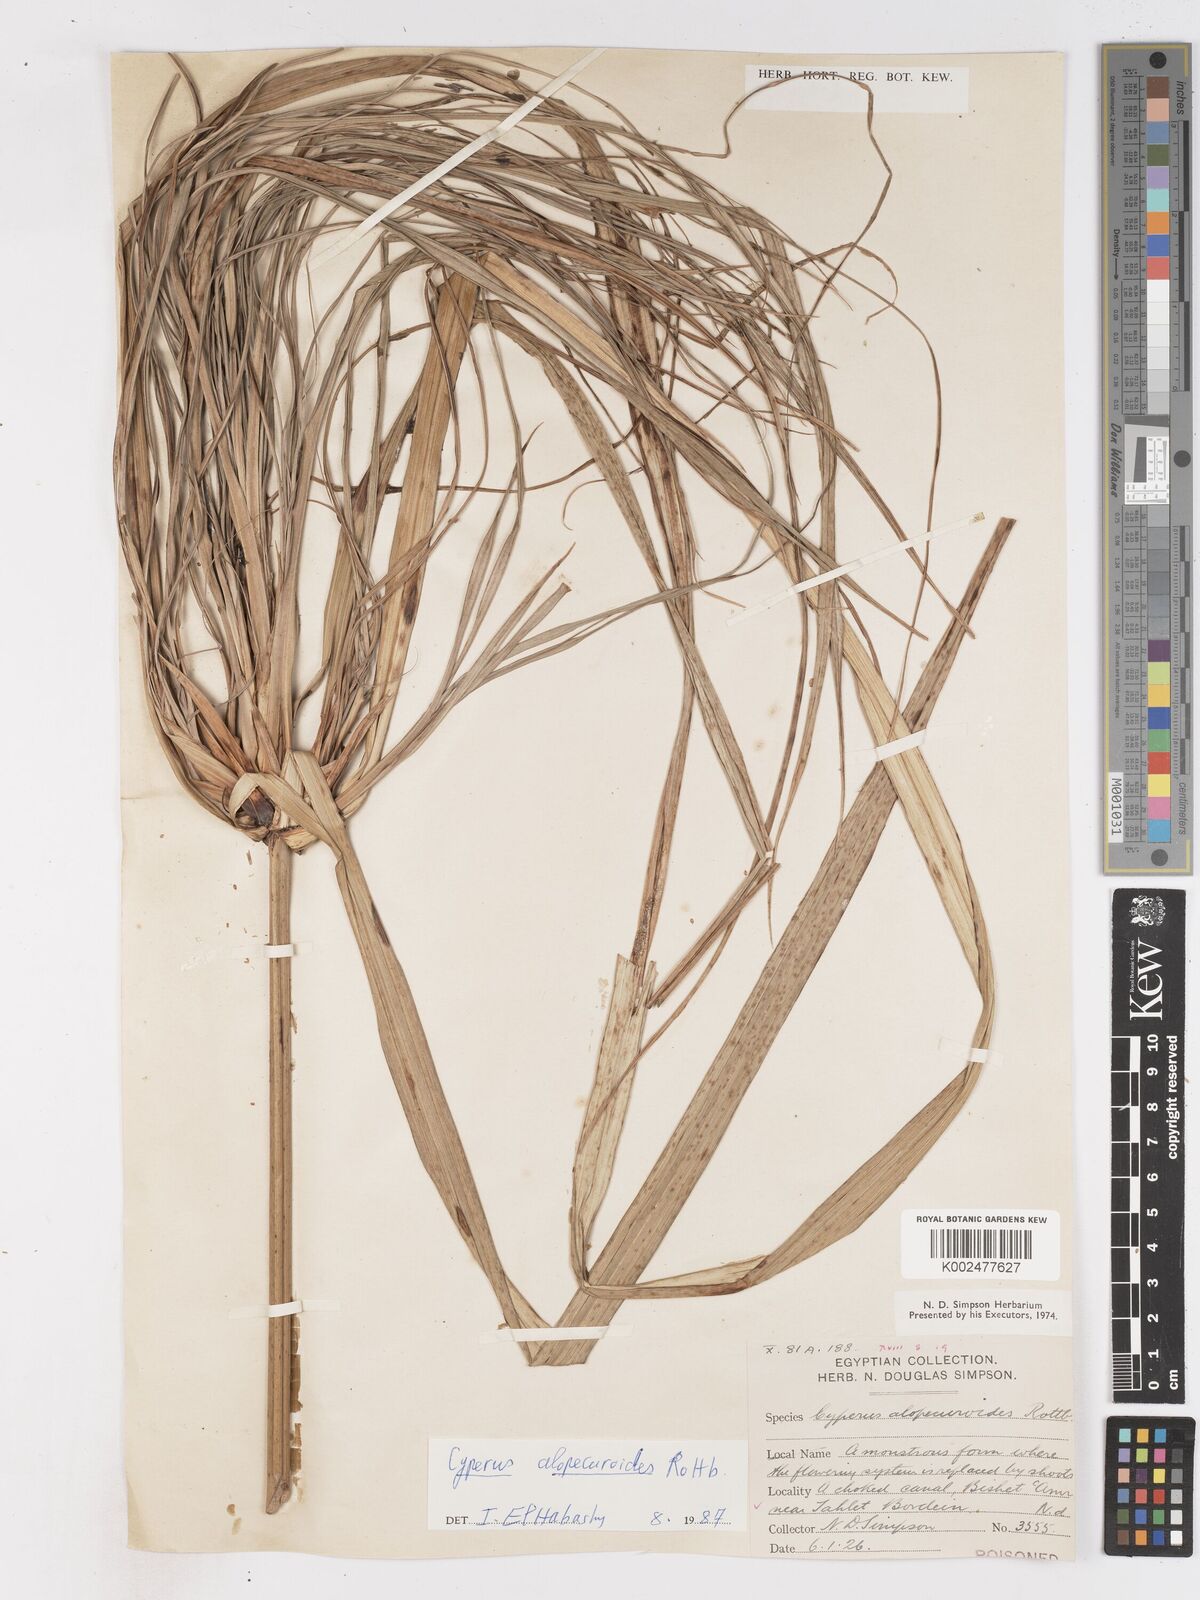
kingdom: Plantae
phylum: Tracheophyta
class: Liliopsida
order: Poales
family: Cyperaceae
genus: Cyperus
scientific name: Cyperus
